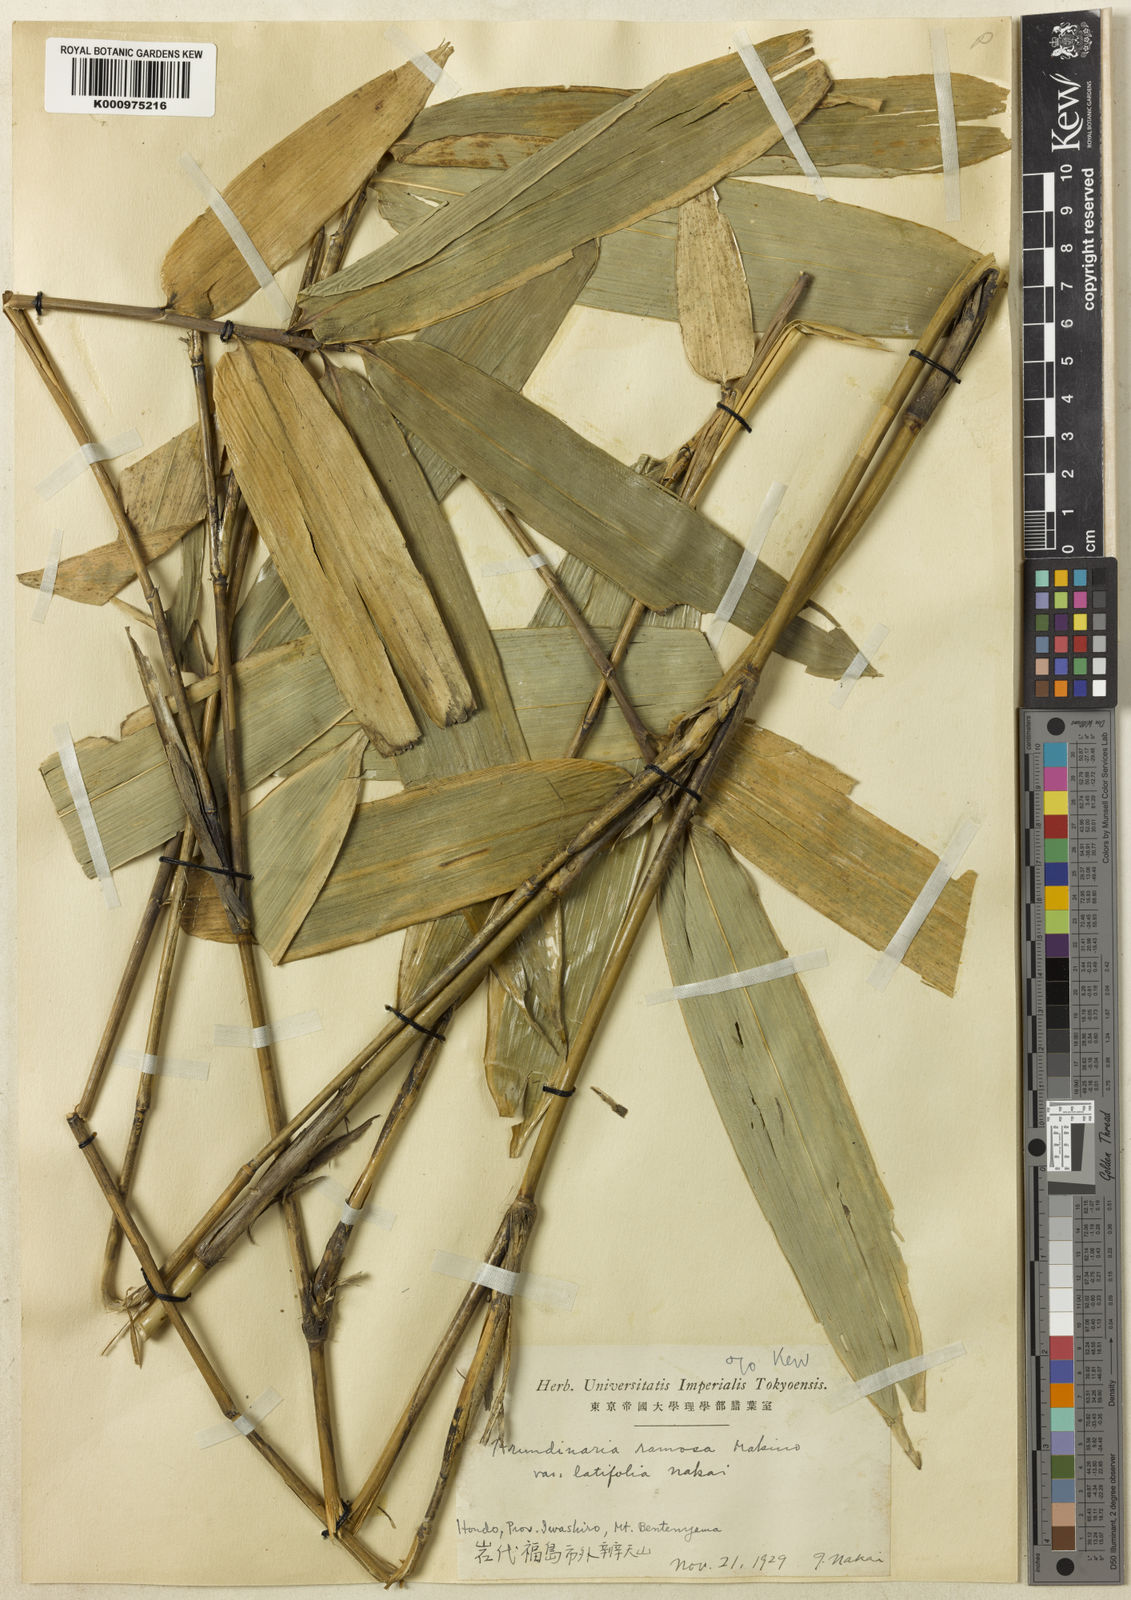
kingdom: Plantae
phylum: Tracheophyta
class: Liliopsida
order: Poales
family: Poaceae
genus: Sasaella
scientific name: Sasaella ramosa
